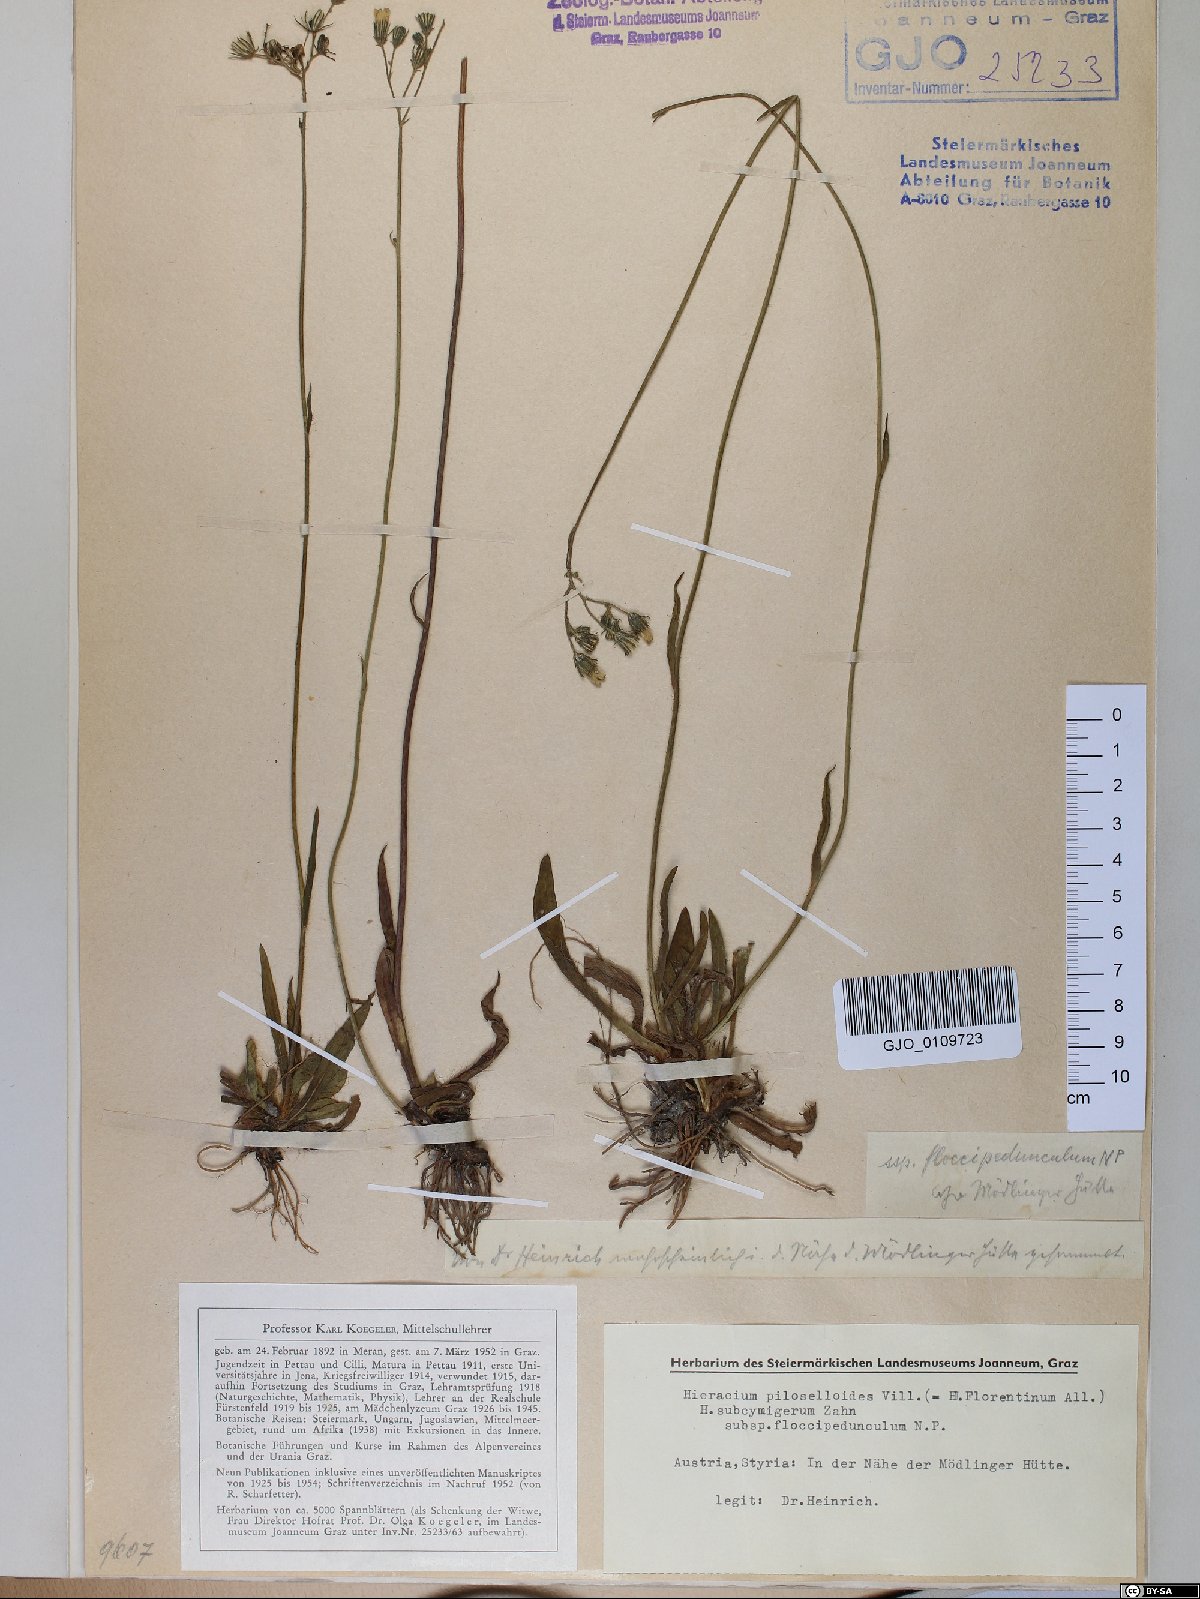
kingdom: Plantae
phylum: Tracheophyta
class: Magnoliopsida
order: Asterales
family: Asteraceae
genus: Pilosella
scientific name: Pilosella piloselloides
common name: Glaucous king-devil
